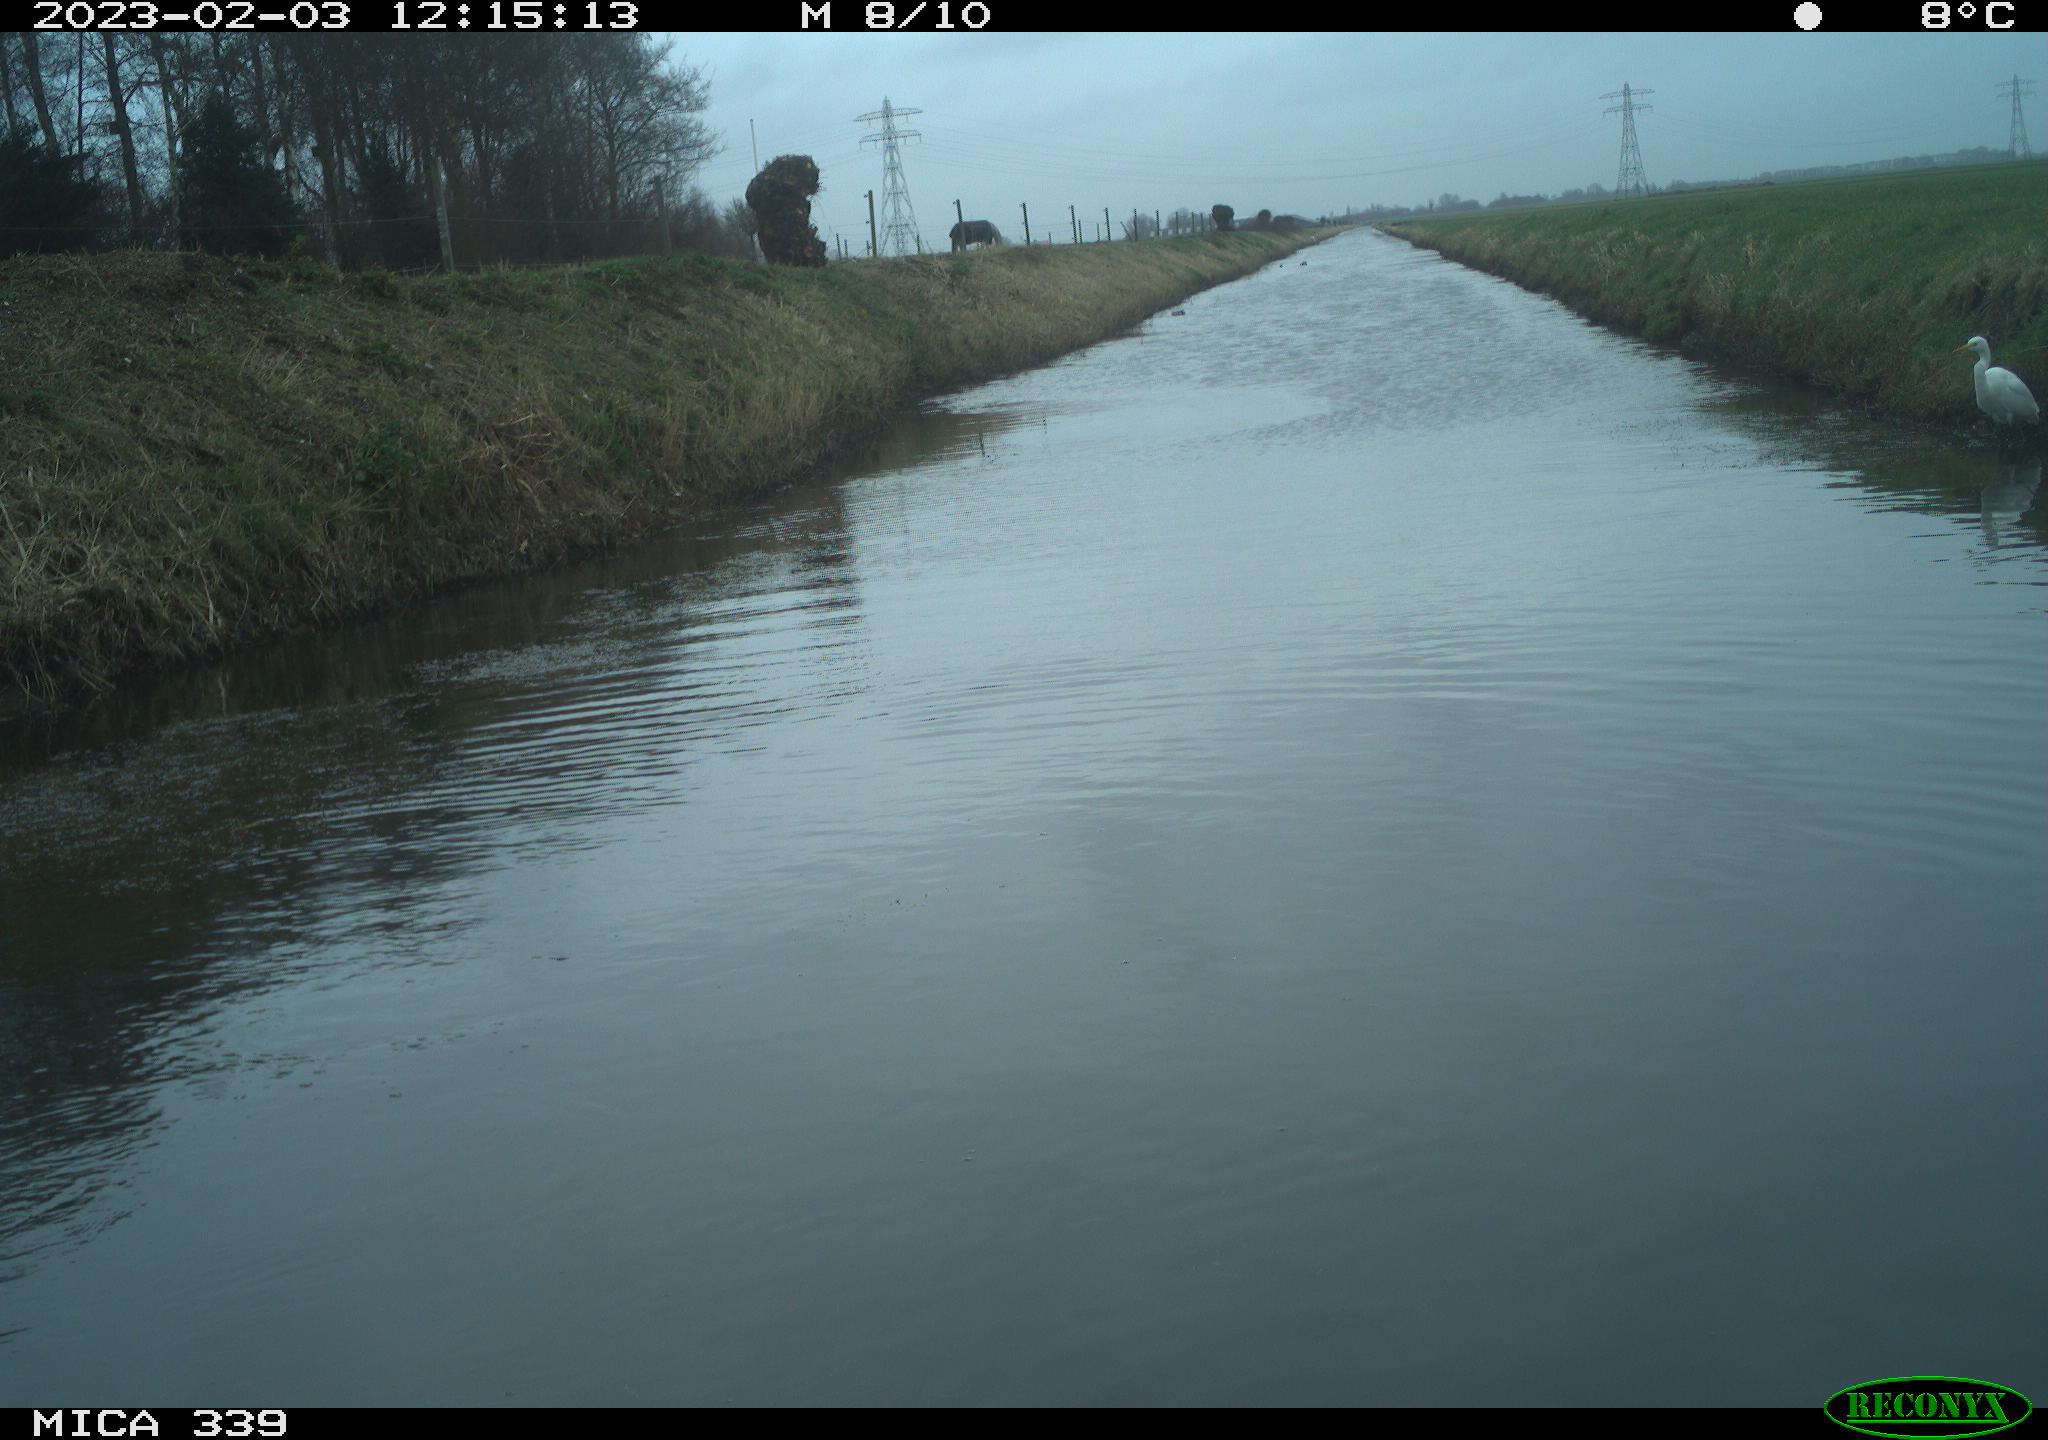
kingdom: Animalia
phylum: Chordata
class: Aves
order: Pelecaniformes
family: Ardeidae
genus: Ardea
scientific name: Ardea alba
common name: Great egret
